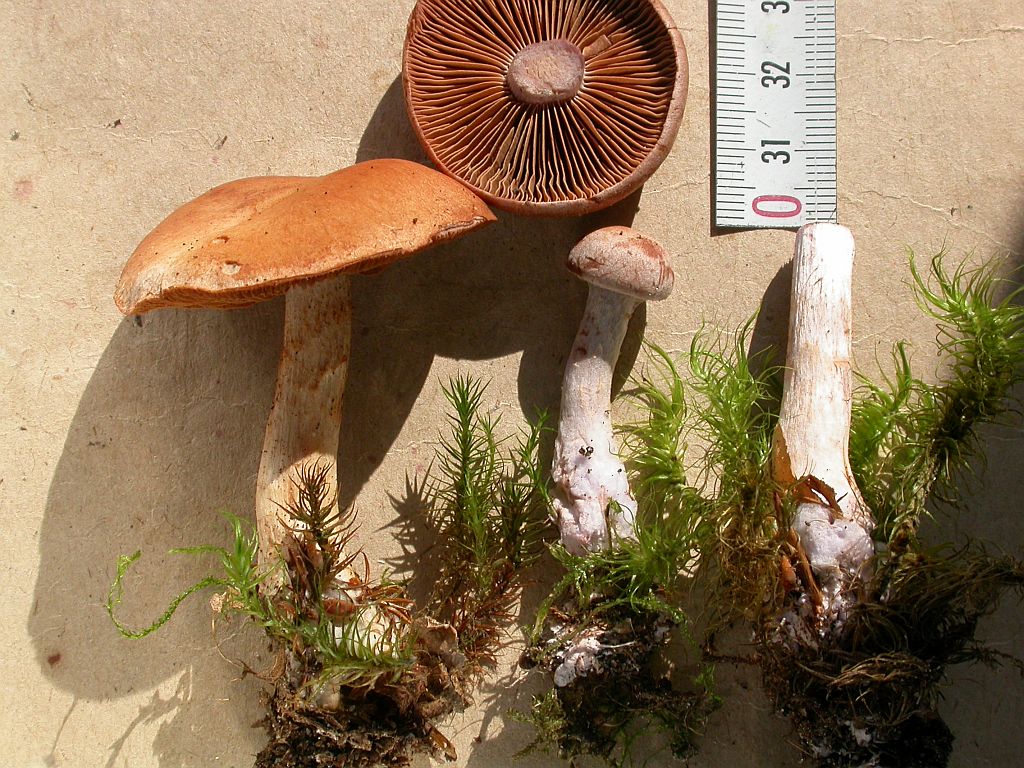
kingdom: Fungi
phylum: Basidiomycota
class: Agaricomycetes
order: Agaricales
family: Cortinariaceae
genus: Cortinarius
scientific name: Cortinarius simulatus
